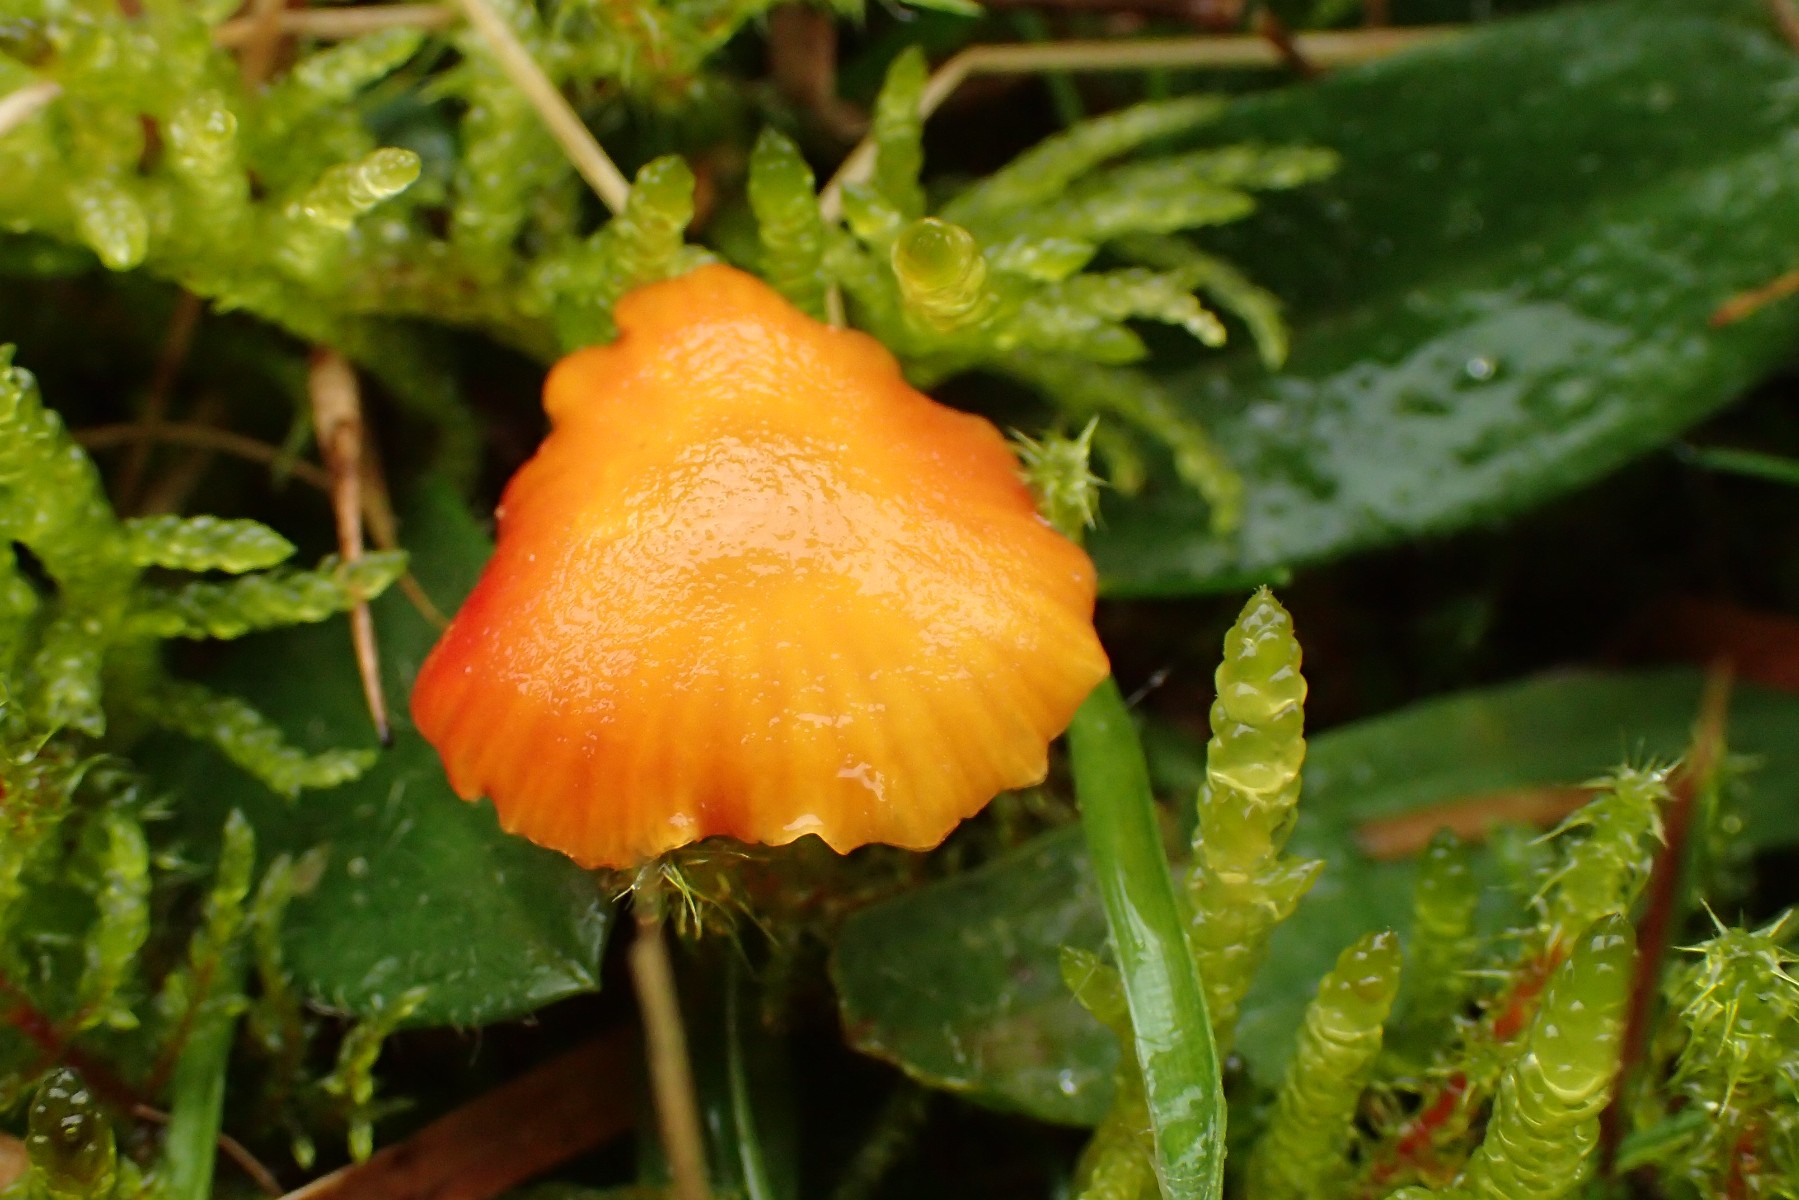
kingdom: Fungi
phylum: Basidiomycota
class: Agaricomycetes
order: Agaricales
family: Hygrophoraceae
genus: Hygrocybe
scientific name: Hygrocybe insipida
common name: liden vokshat
